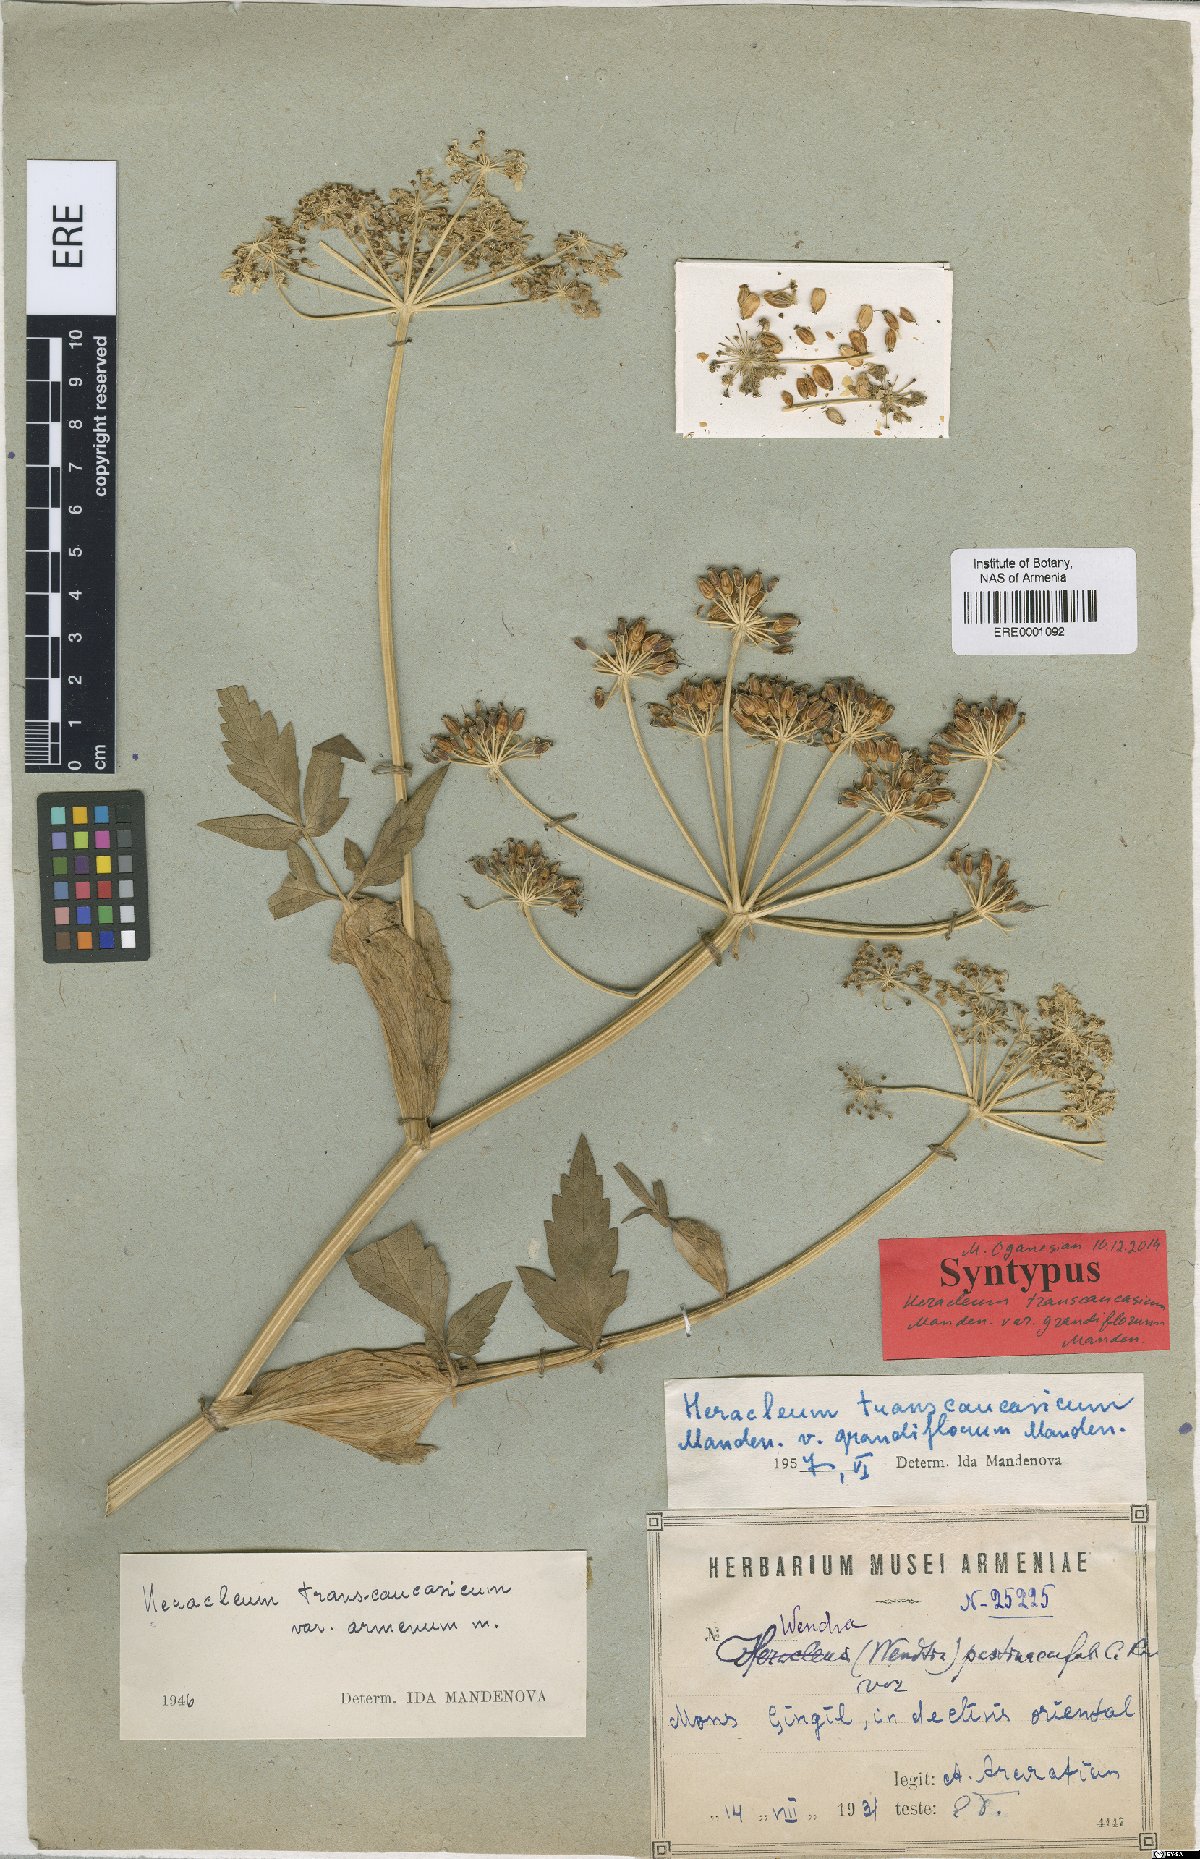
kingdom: Plantae
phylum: Tracheophyta
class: Magnoliopsida
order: Apiales
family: Apiaceae
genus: Heracleum
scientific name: Heracleum pastinacifolium
